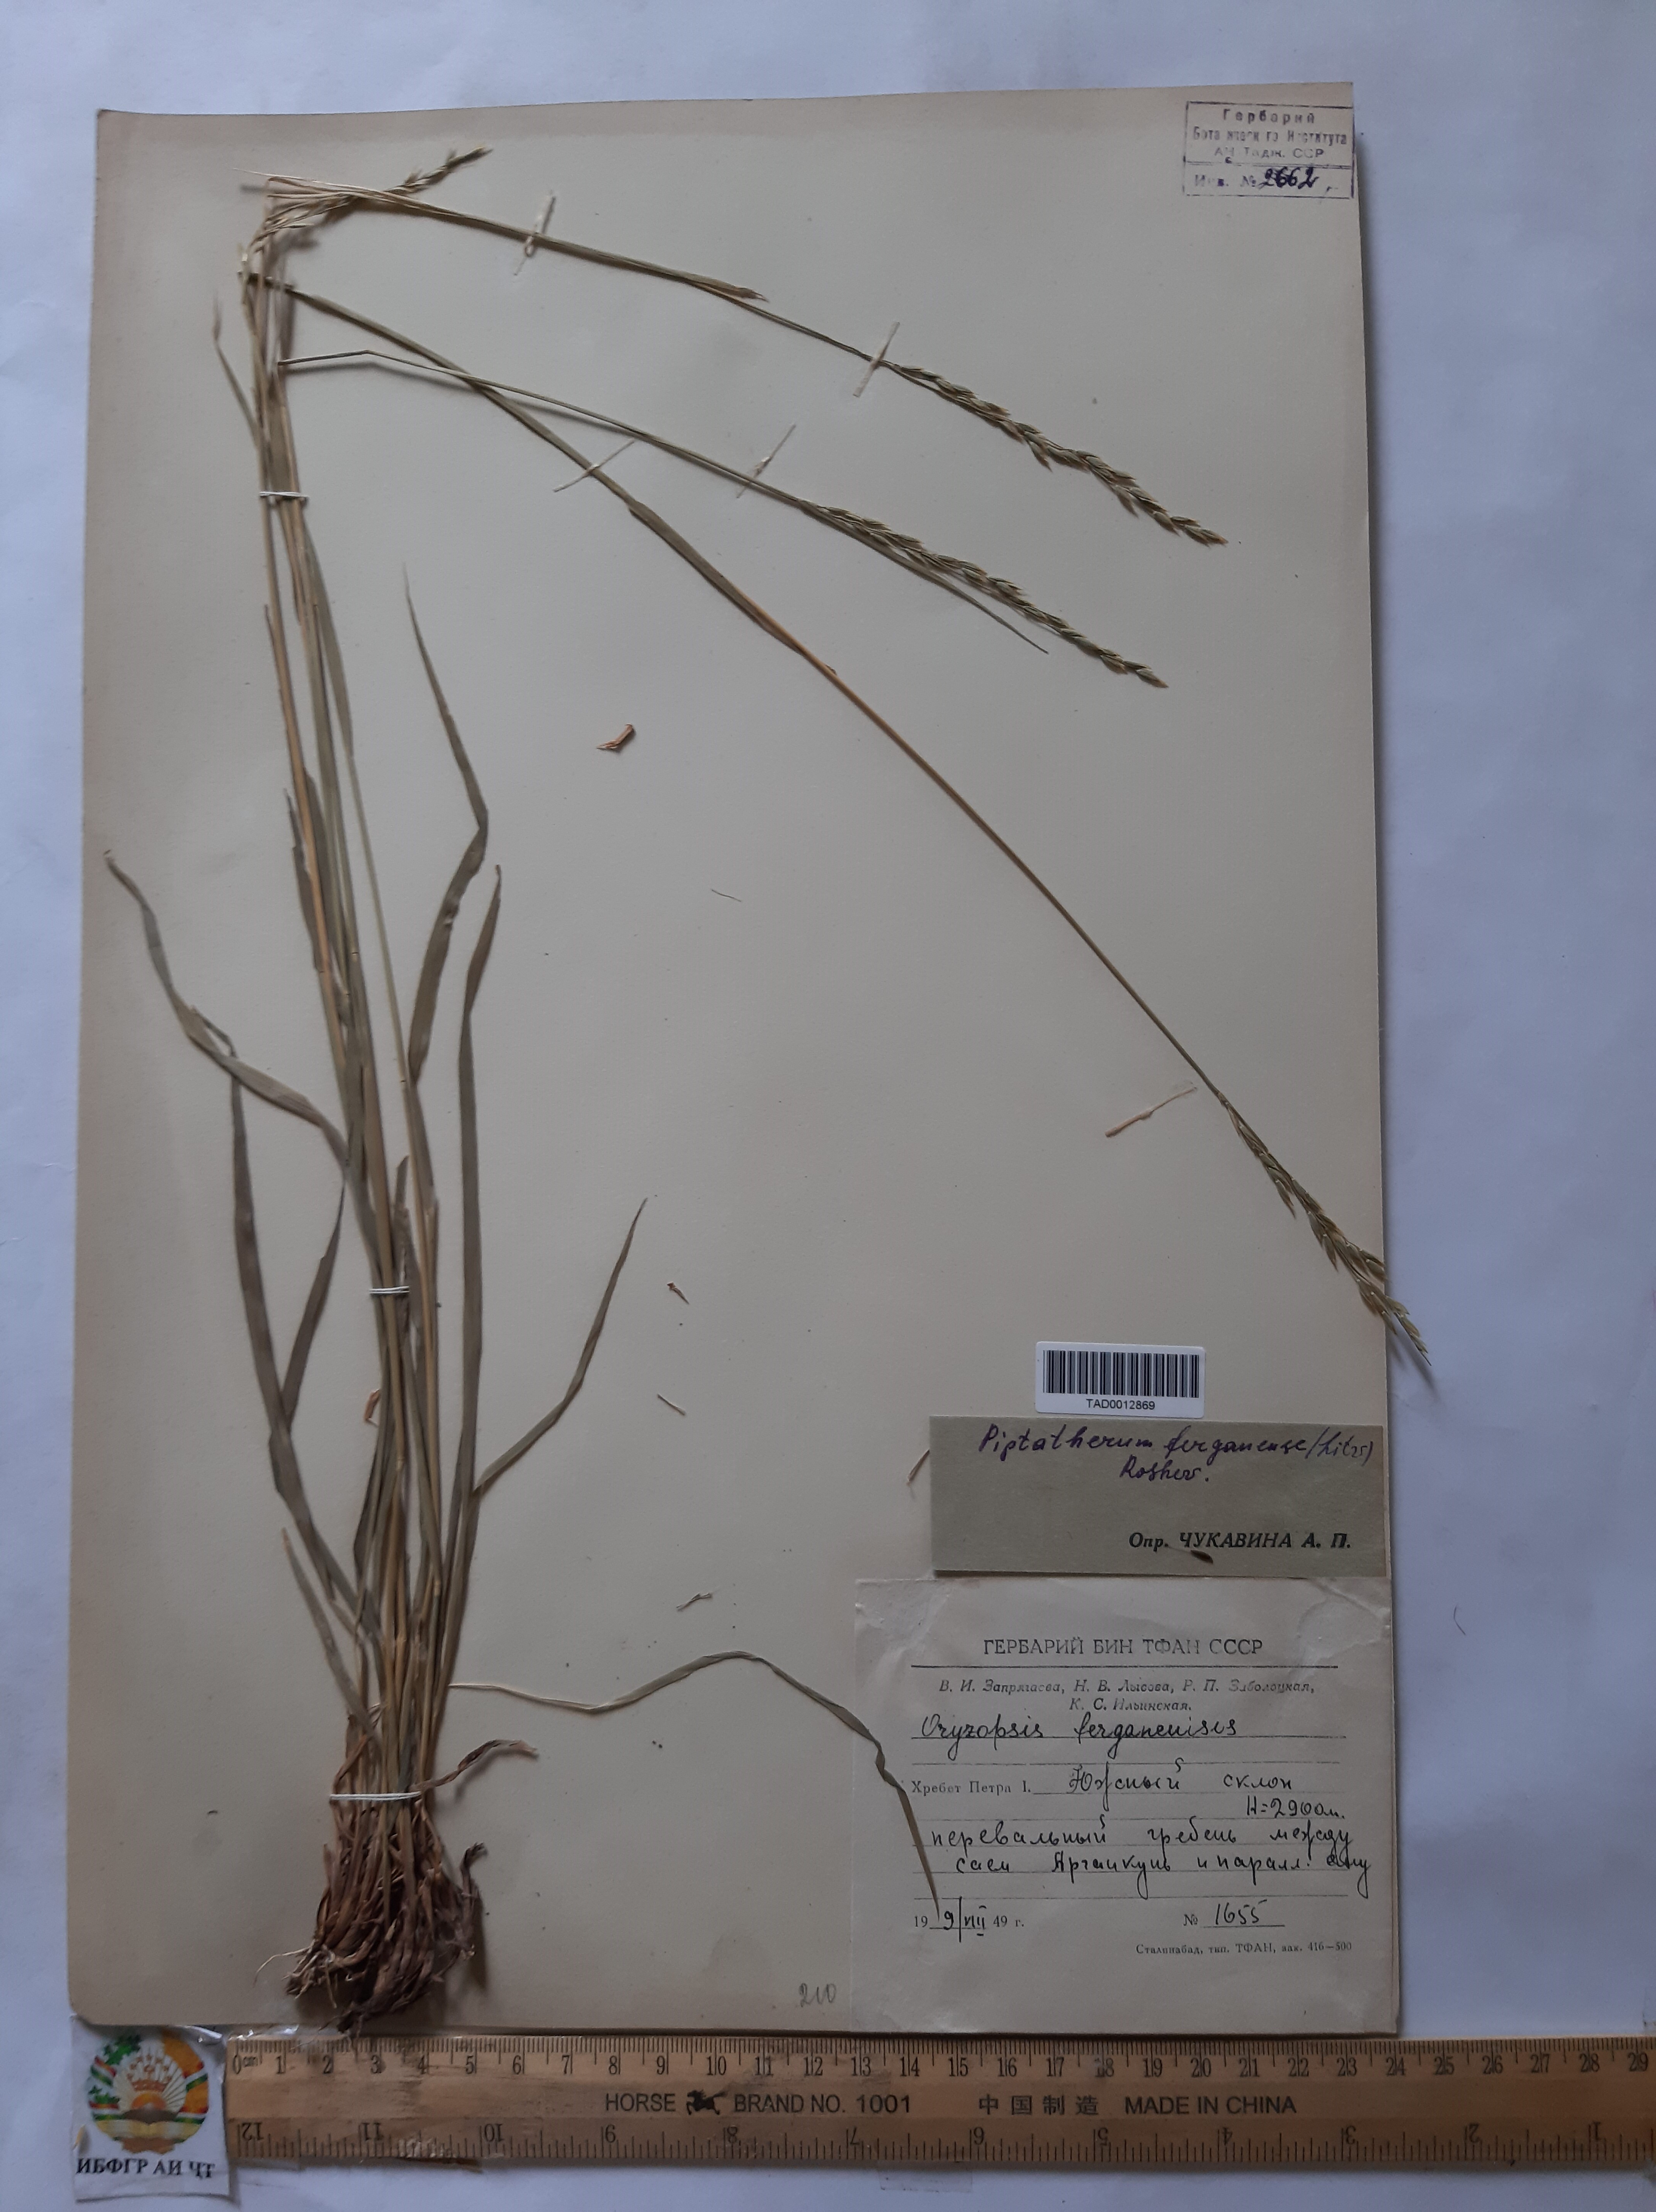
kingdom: Plantae
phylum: Tracheophyta
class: Liliopsida
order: Poales
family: Poaceae
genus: Piptatherum
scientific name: Piptatherum ferganense
